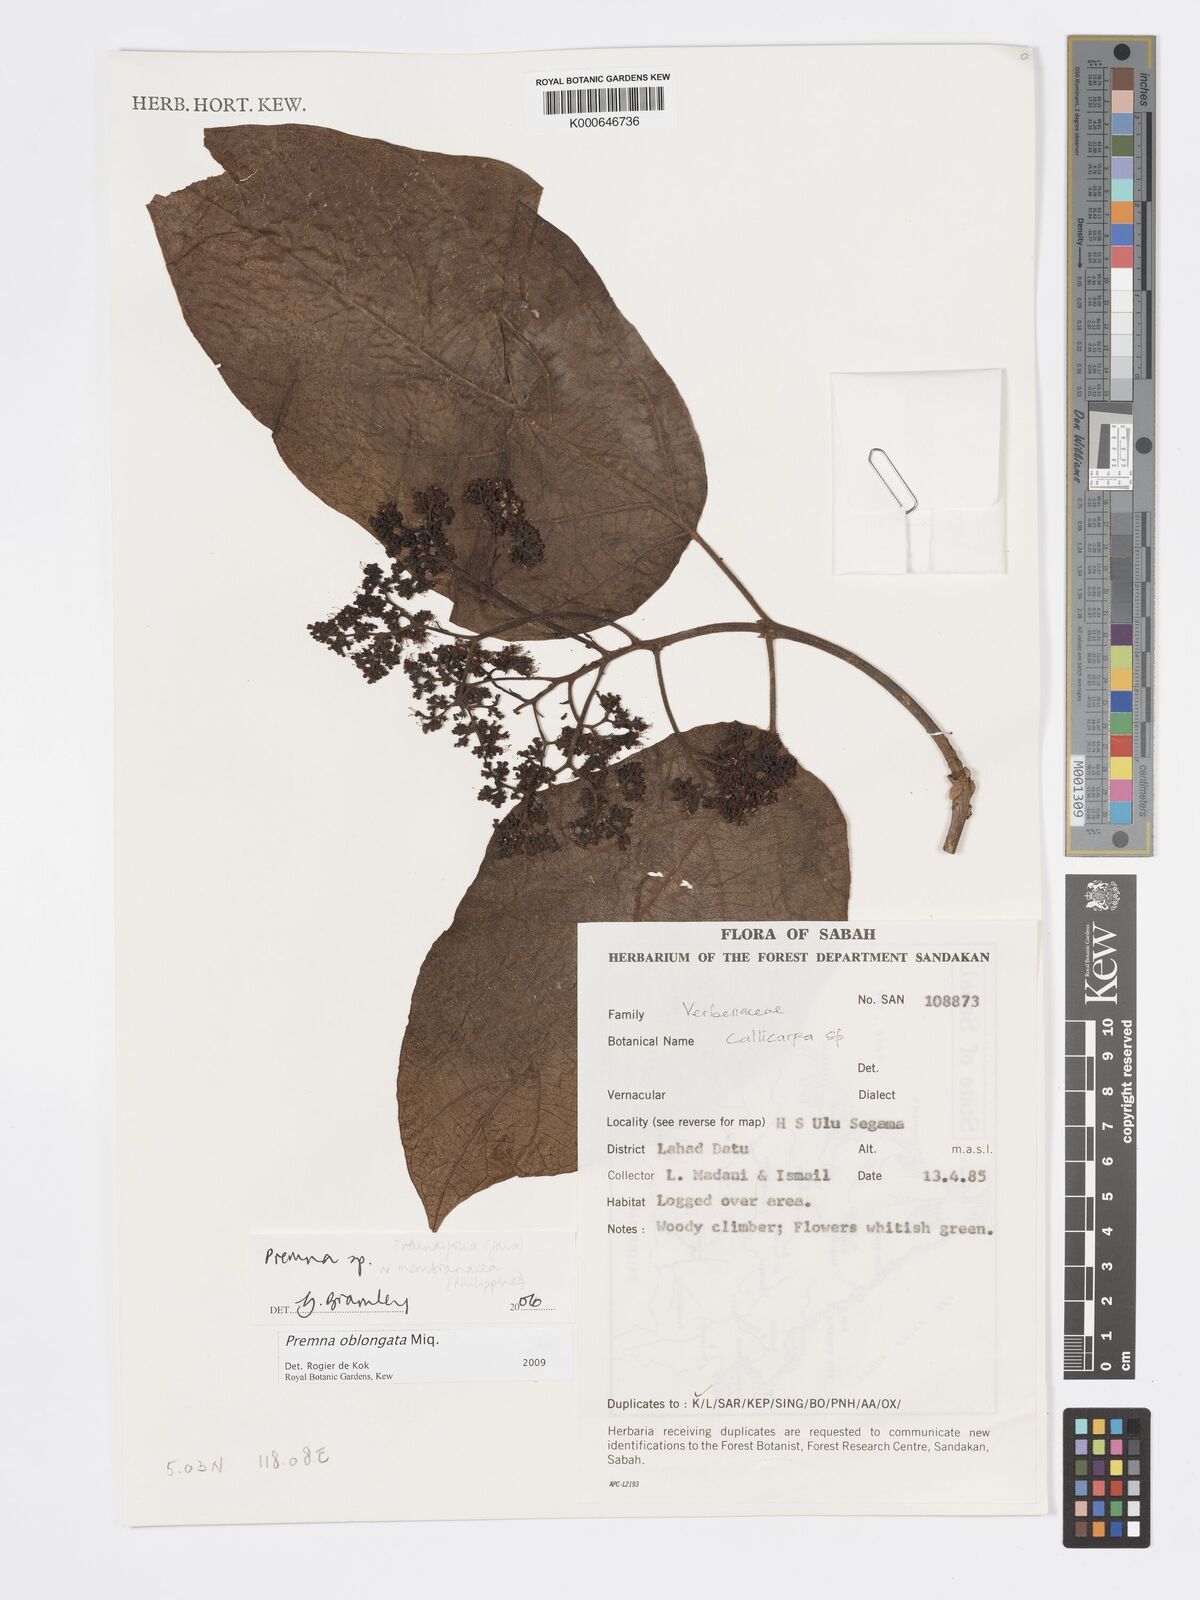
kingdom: Plantae
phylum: Tracheophyta
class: Magnoliopsida
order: Lamiales
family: Lamiaceae
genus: Premna
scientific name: Premna oblongata
